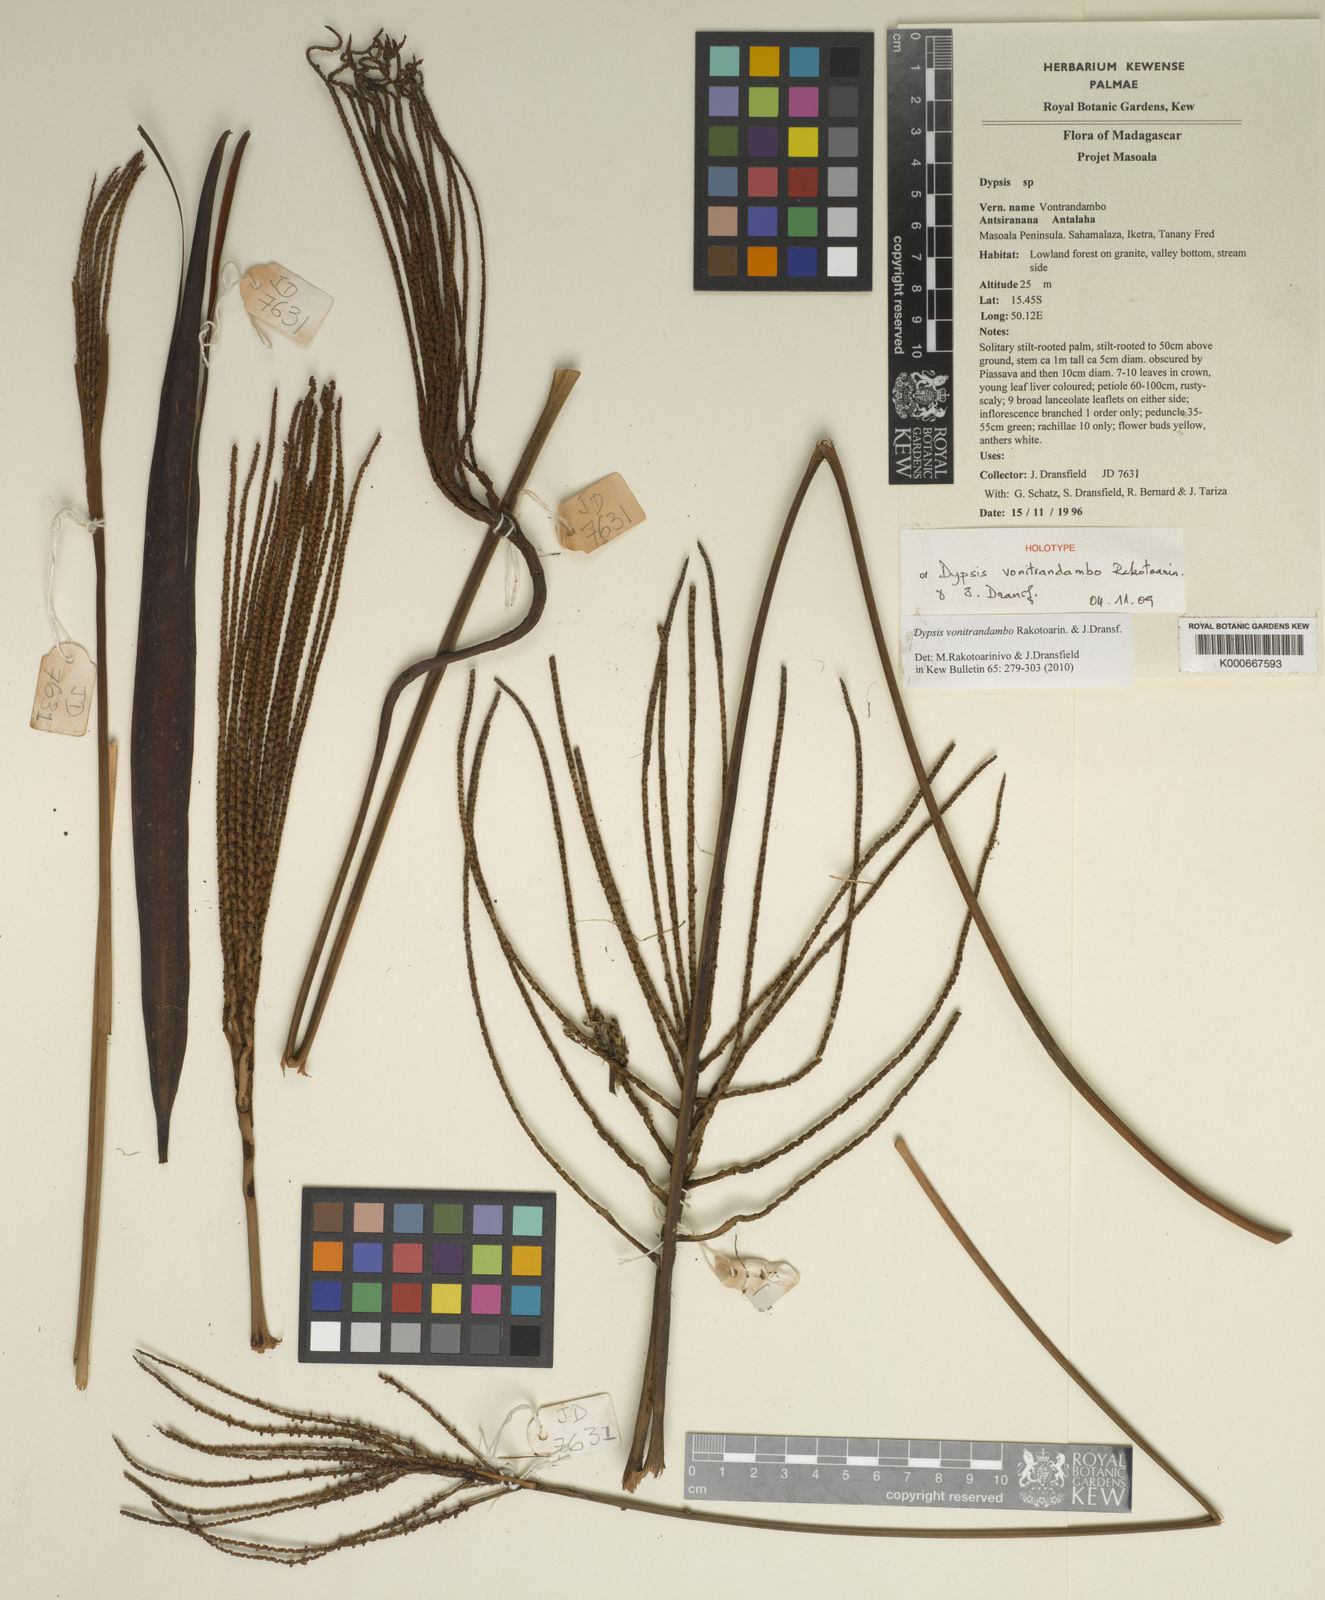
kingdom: Plantae
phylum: Tracheophyta
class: Liliopsida
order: Arecales
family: Arecaceae
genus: Dypsis
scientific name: Dypsis vonitrandambo
